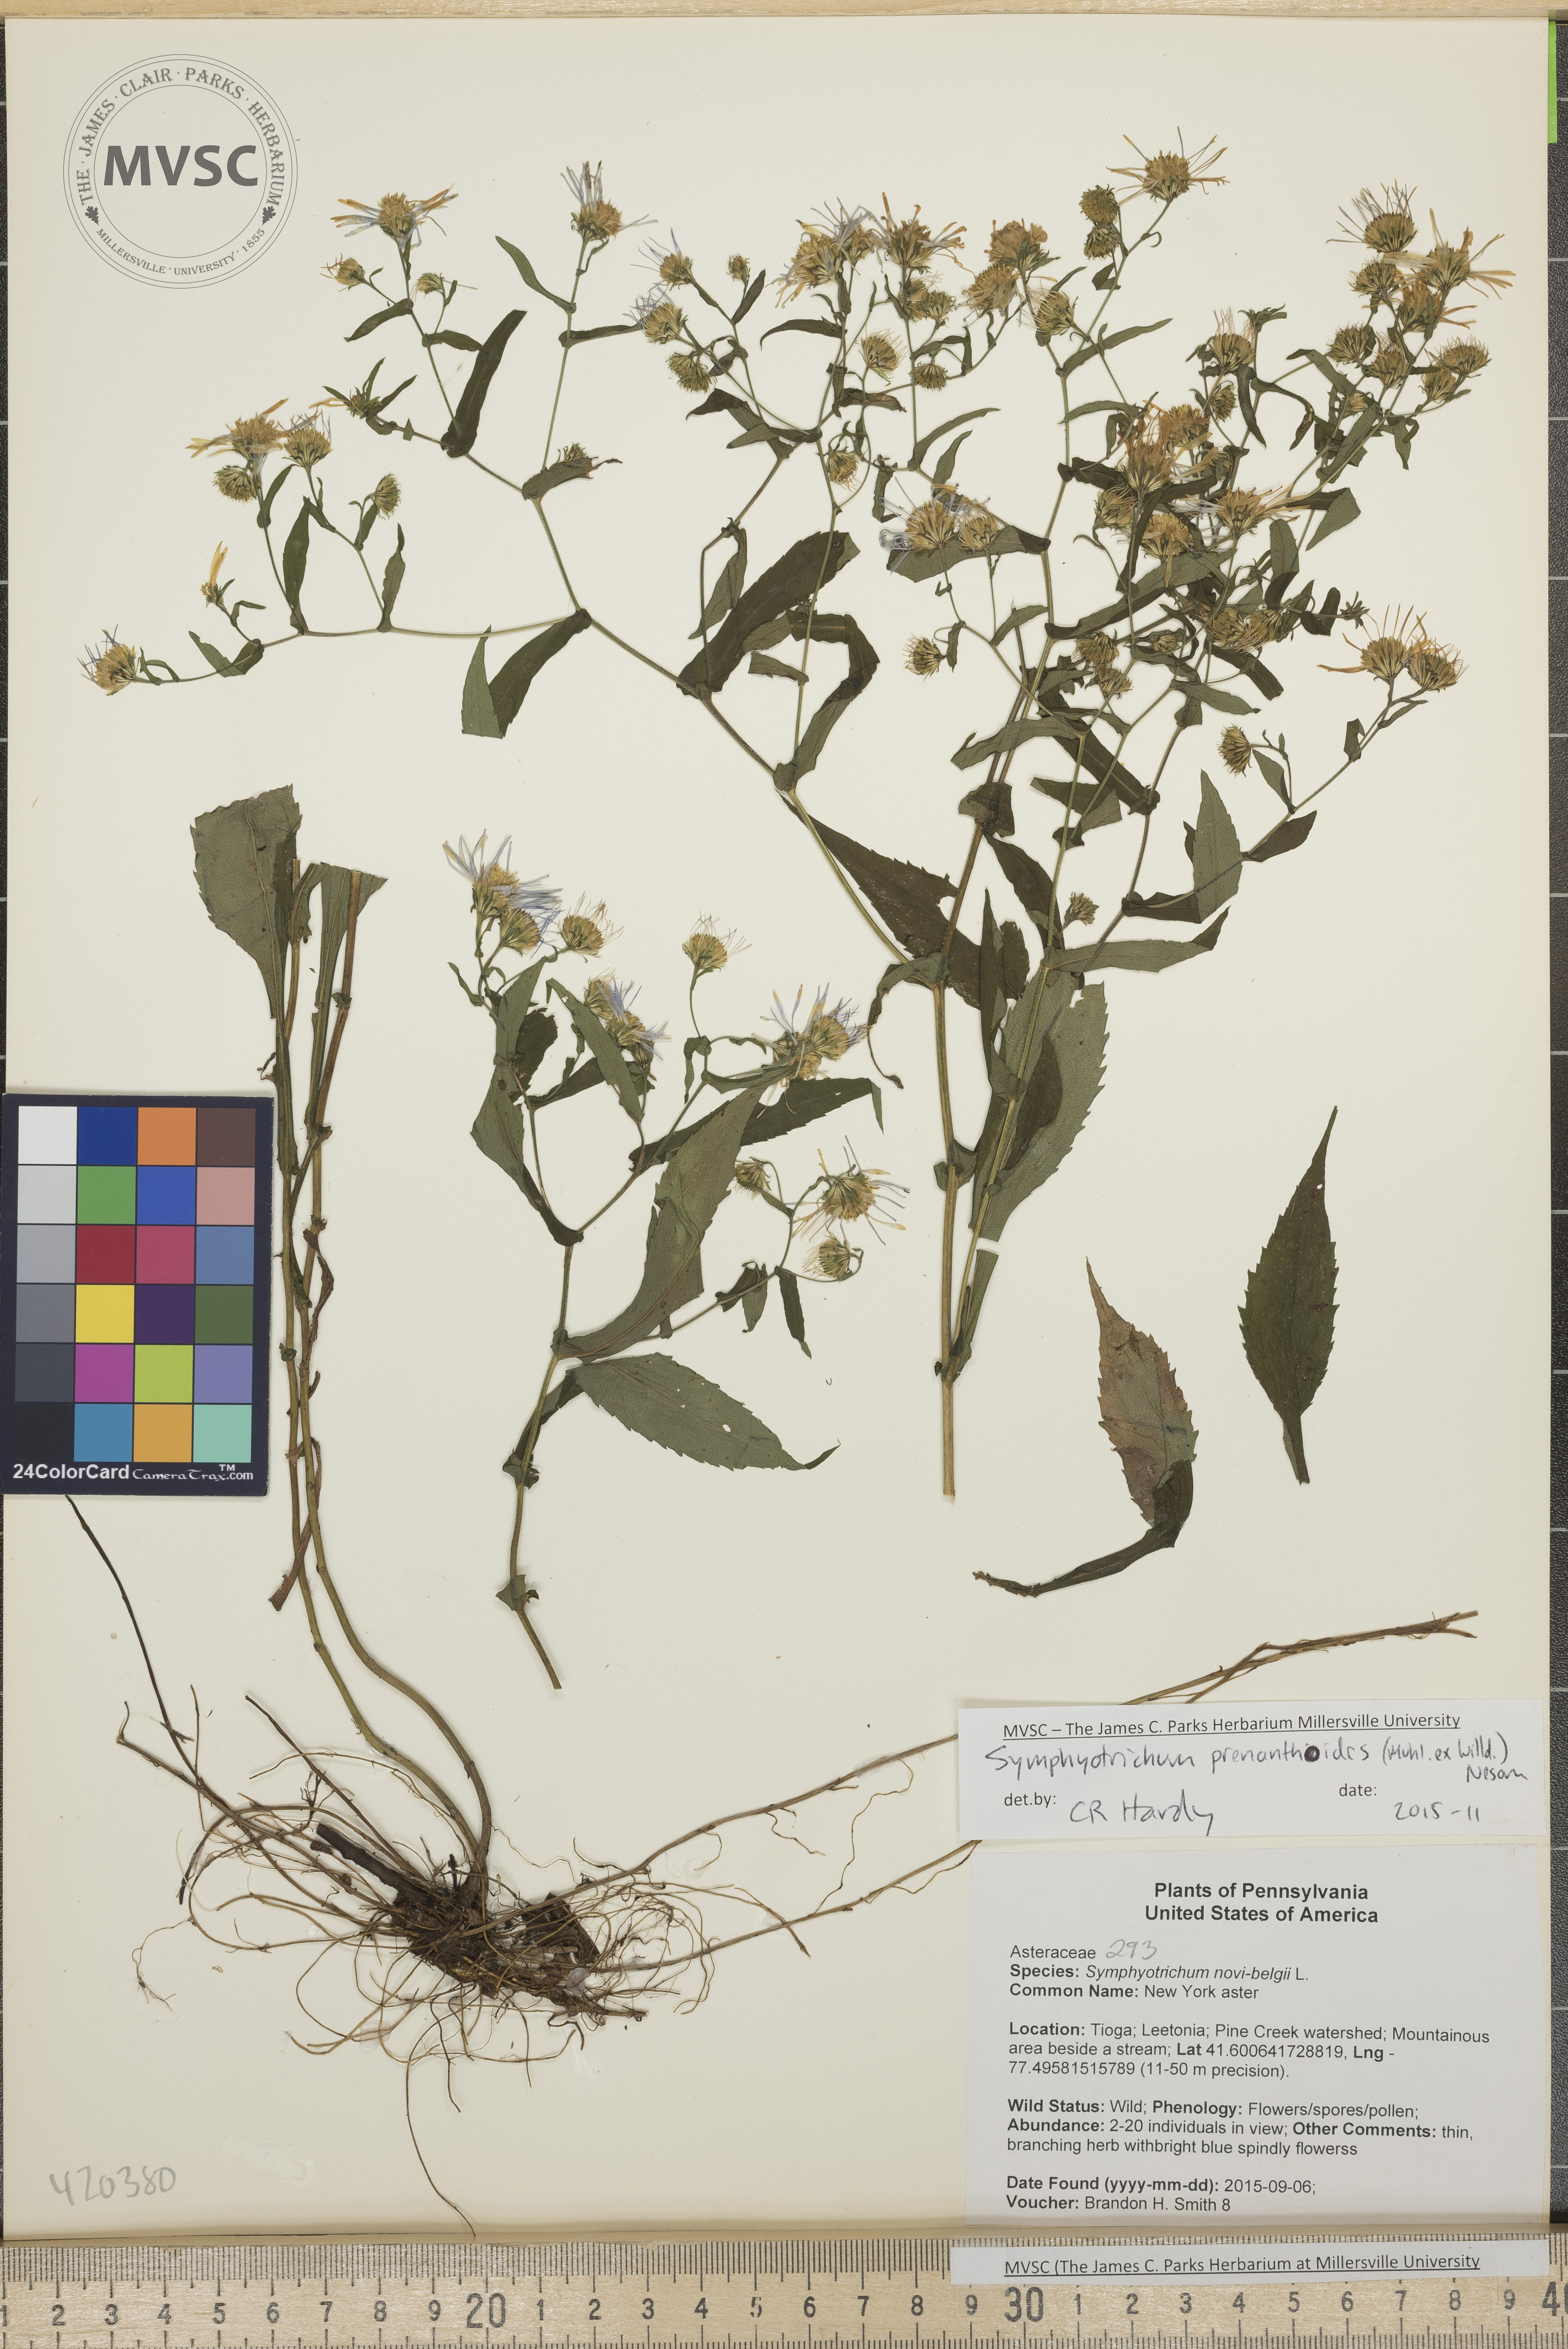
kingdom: Plantae
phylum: Tracheophyta
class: Magnoliopsida
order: Asterales
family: Asteraceae
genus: Symphyotrichum
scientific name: Symphyotrichum prenanthoides
